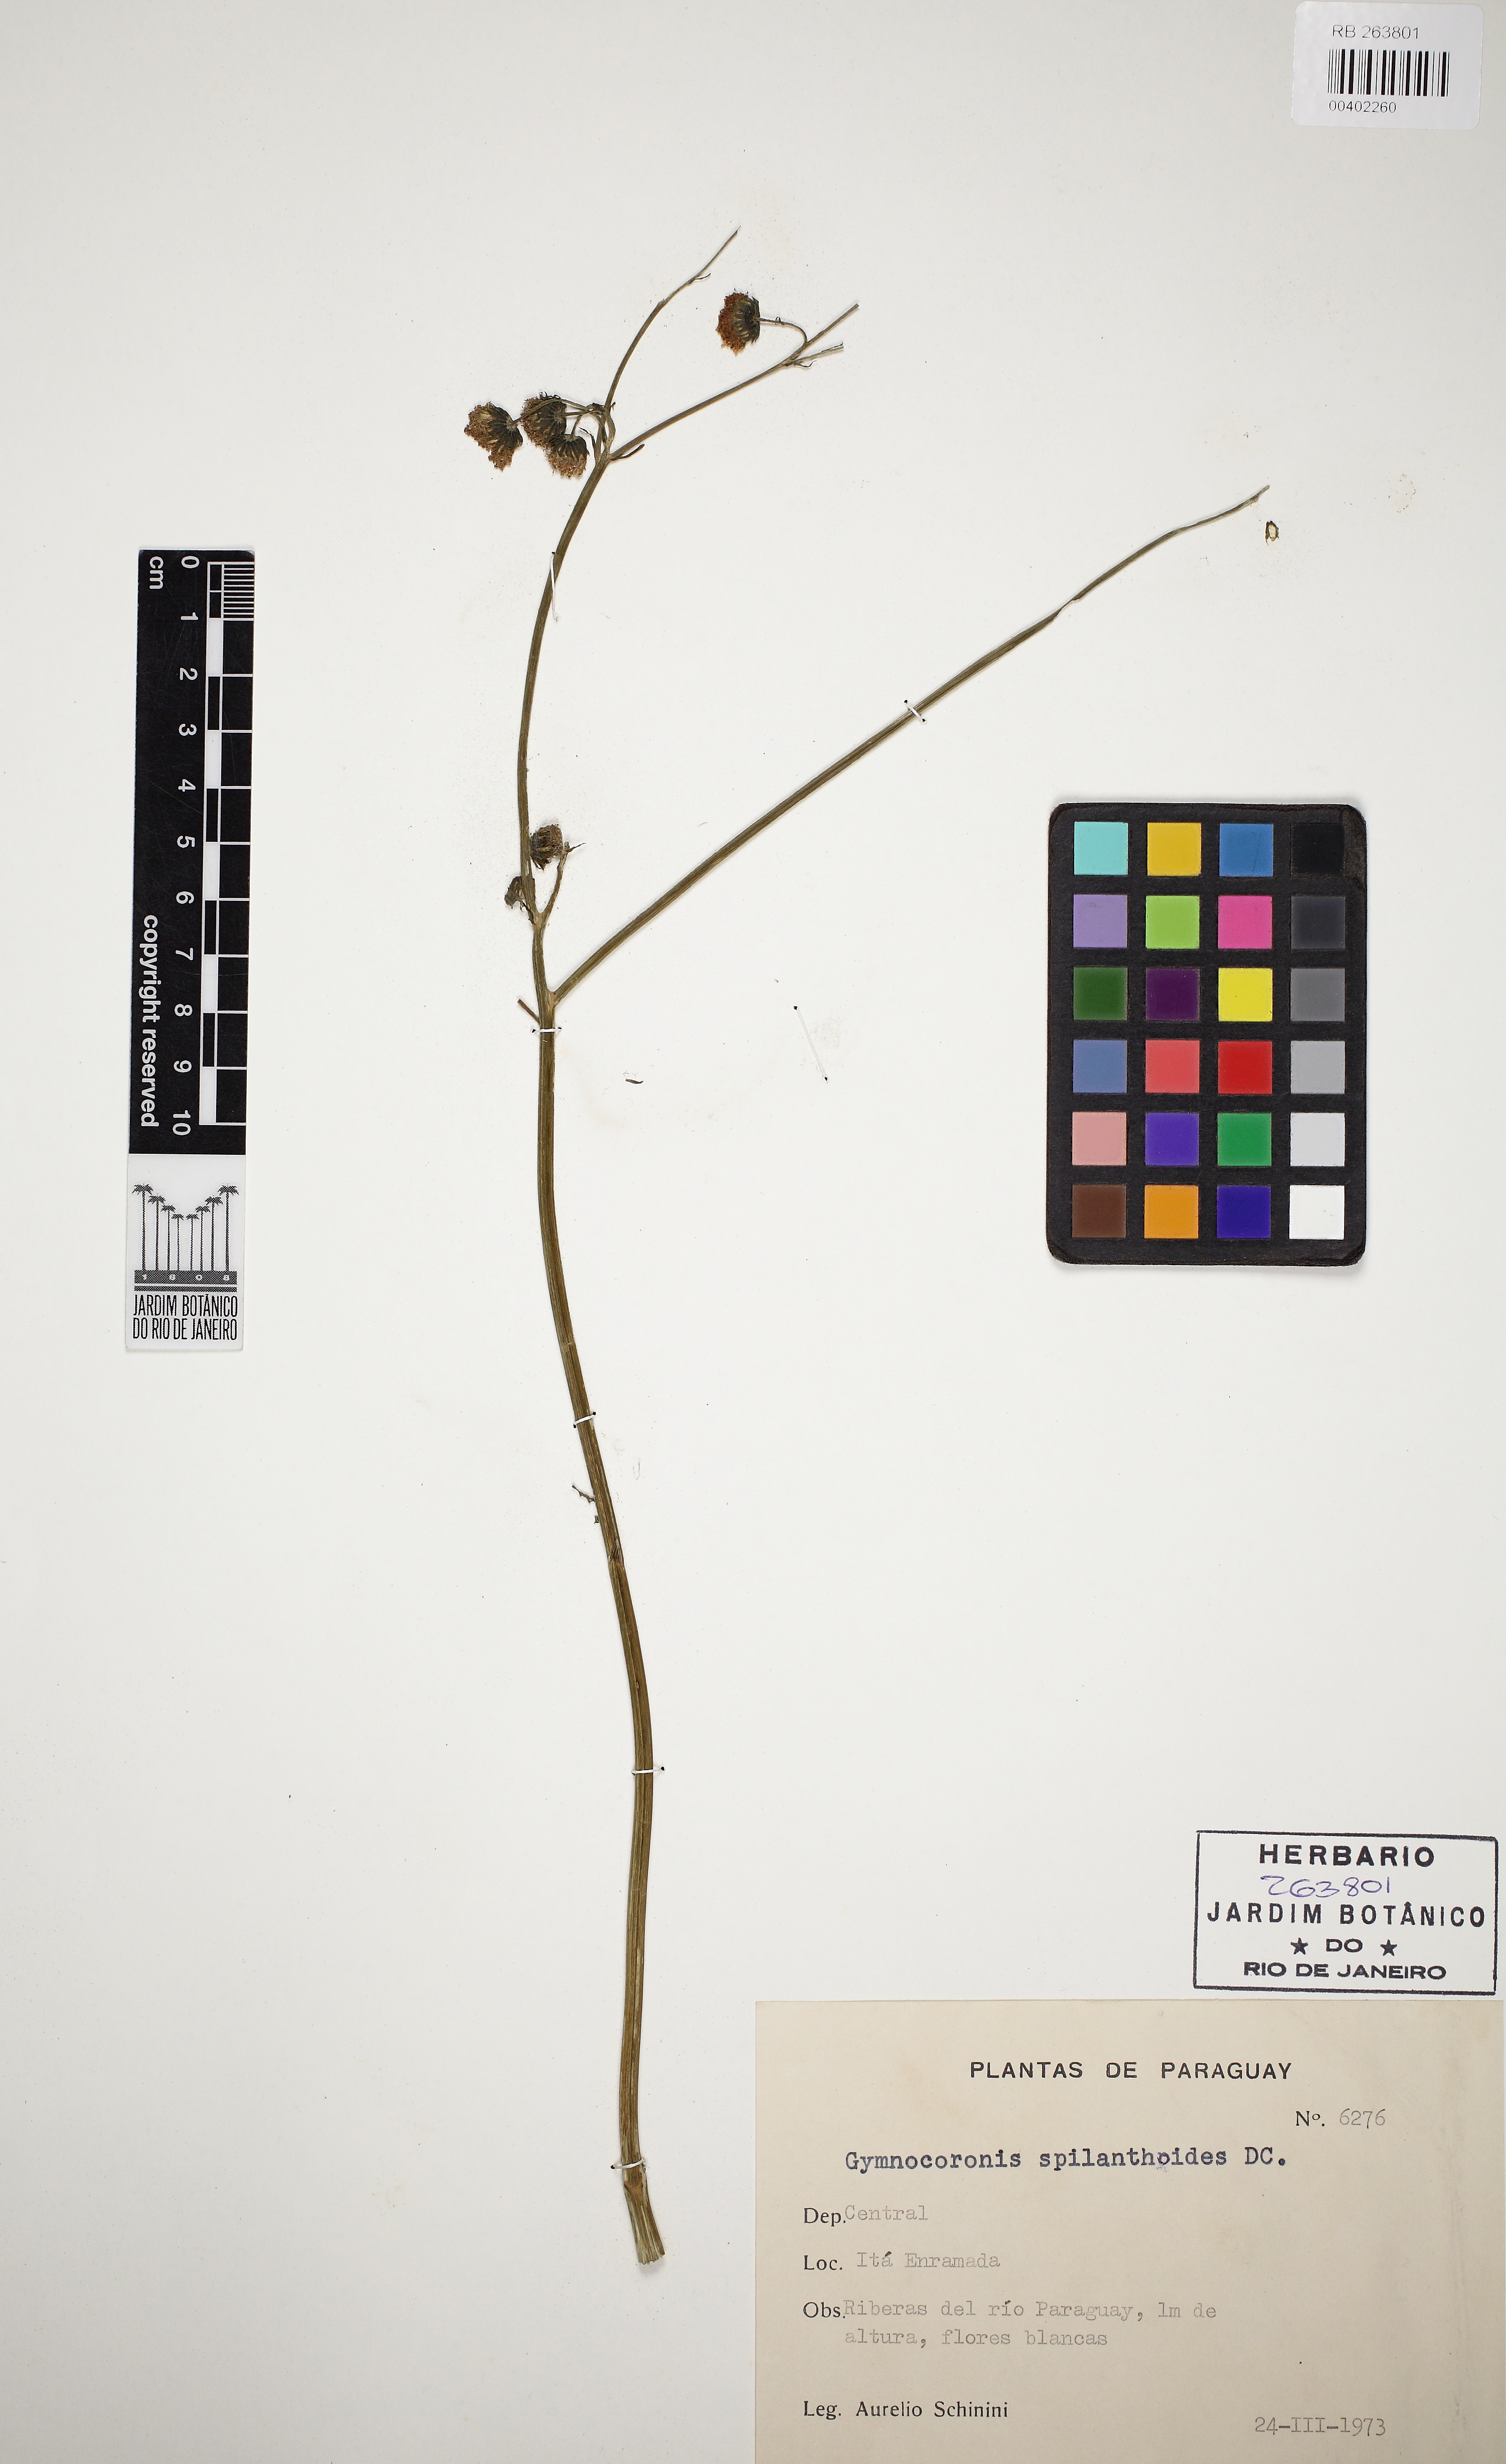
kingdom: Plantae
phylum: Tracheophyta
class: Magnoliopsida
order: Asterales
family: Asteraceae
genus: Gymnocoronis
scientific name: Gymnocoronis spilanthoides
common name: Senegal teaplant
